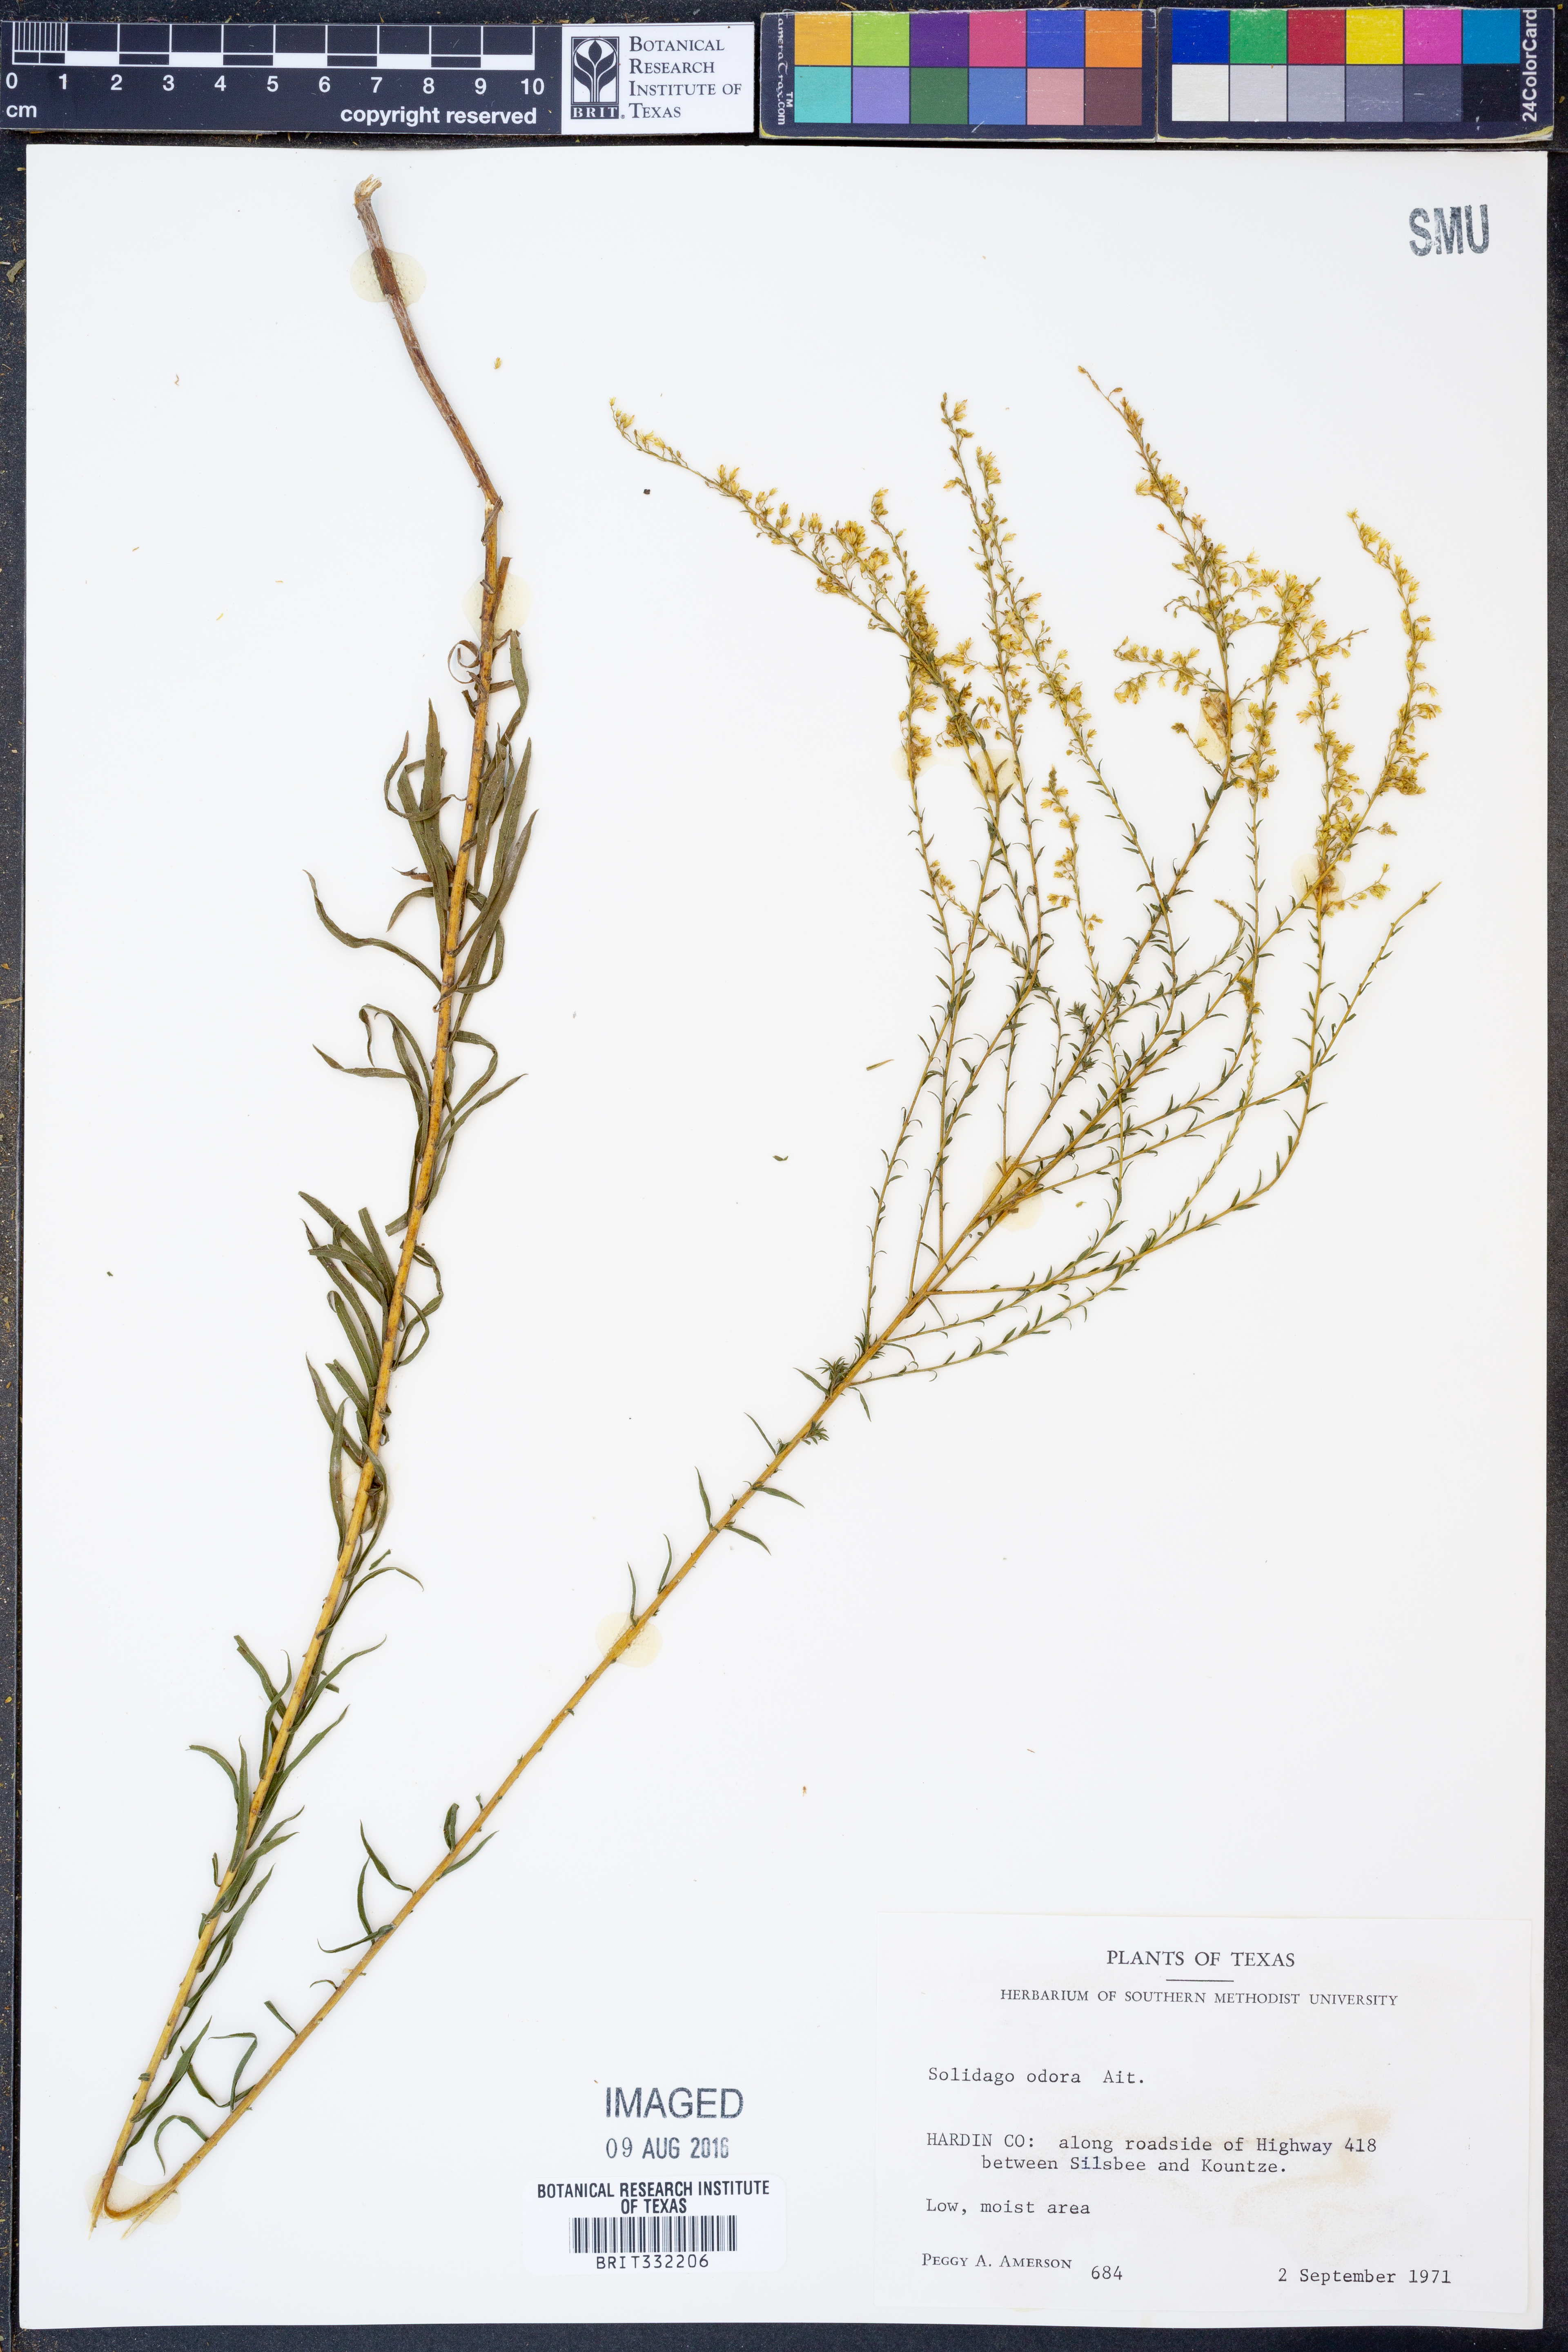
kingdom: Plantae
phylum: Tracheophyta
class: Magnoliopsida
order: Asterales
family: Asteraceae
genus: Solidago
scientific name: Solidago odora
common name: Anise-scented goldenrod
